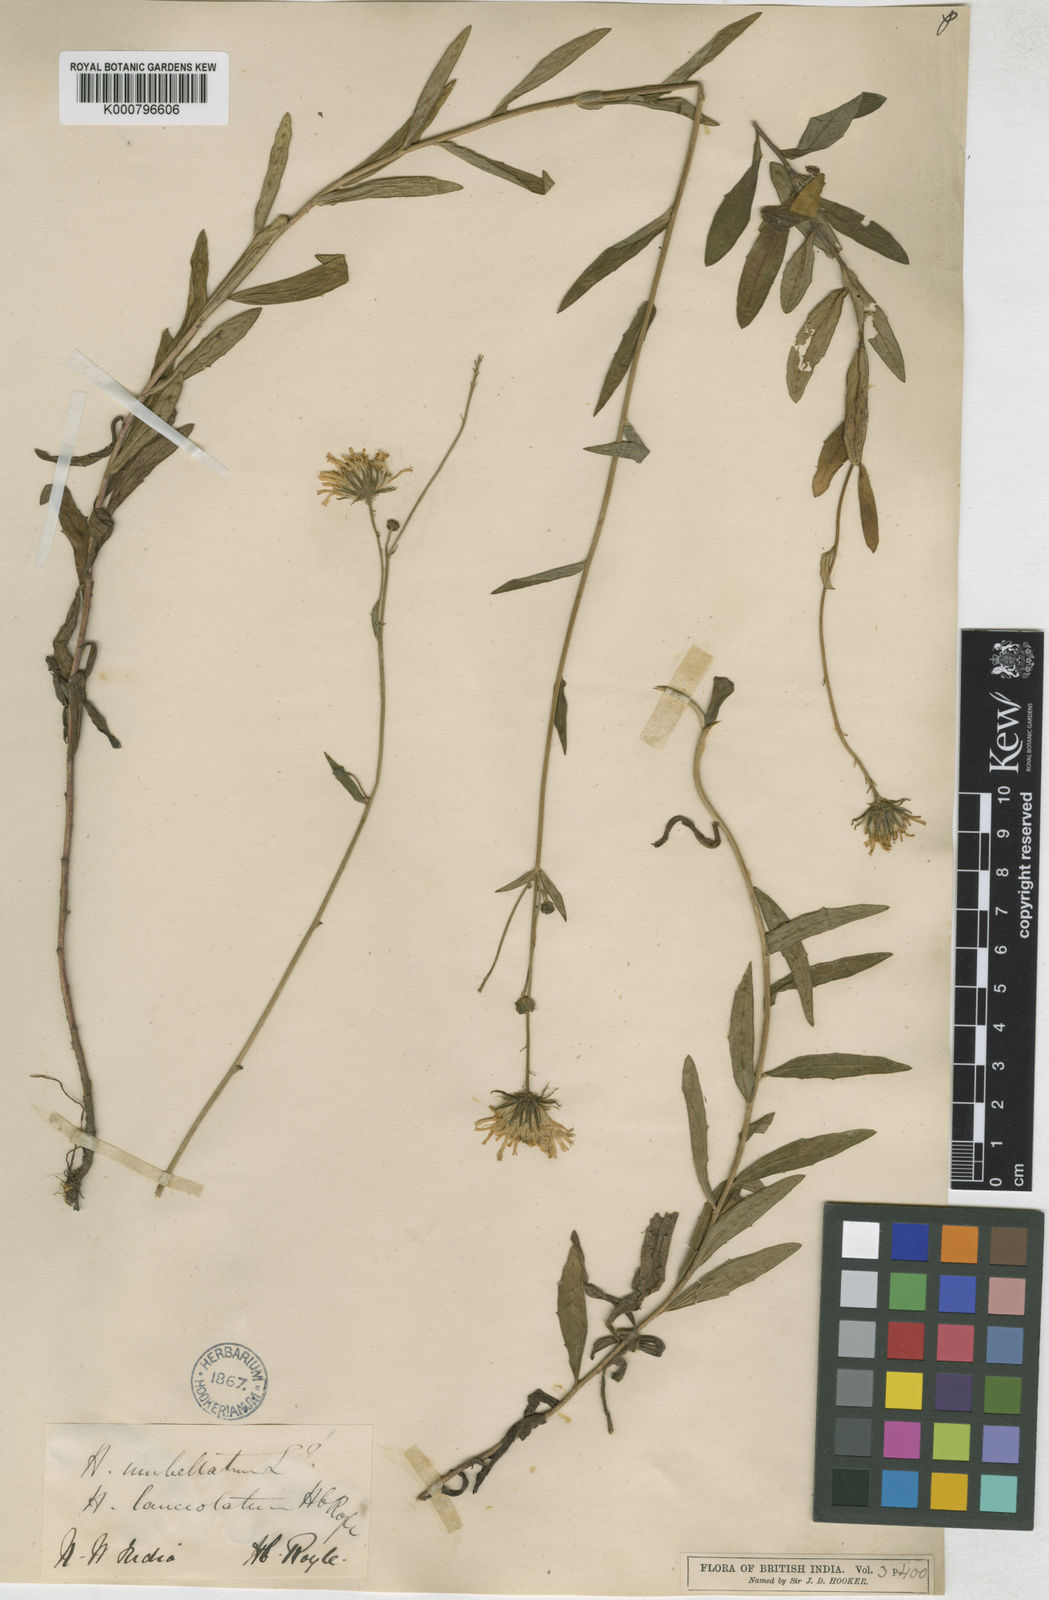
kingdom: Plantae
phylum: Tracheophyta
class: Magnoliopsida
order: Asterales
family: Asteraceae
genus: Hieracium
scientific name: Hieracium umbellatum
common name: Northern hawkweed
